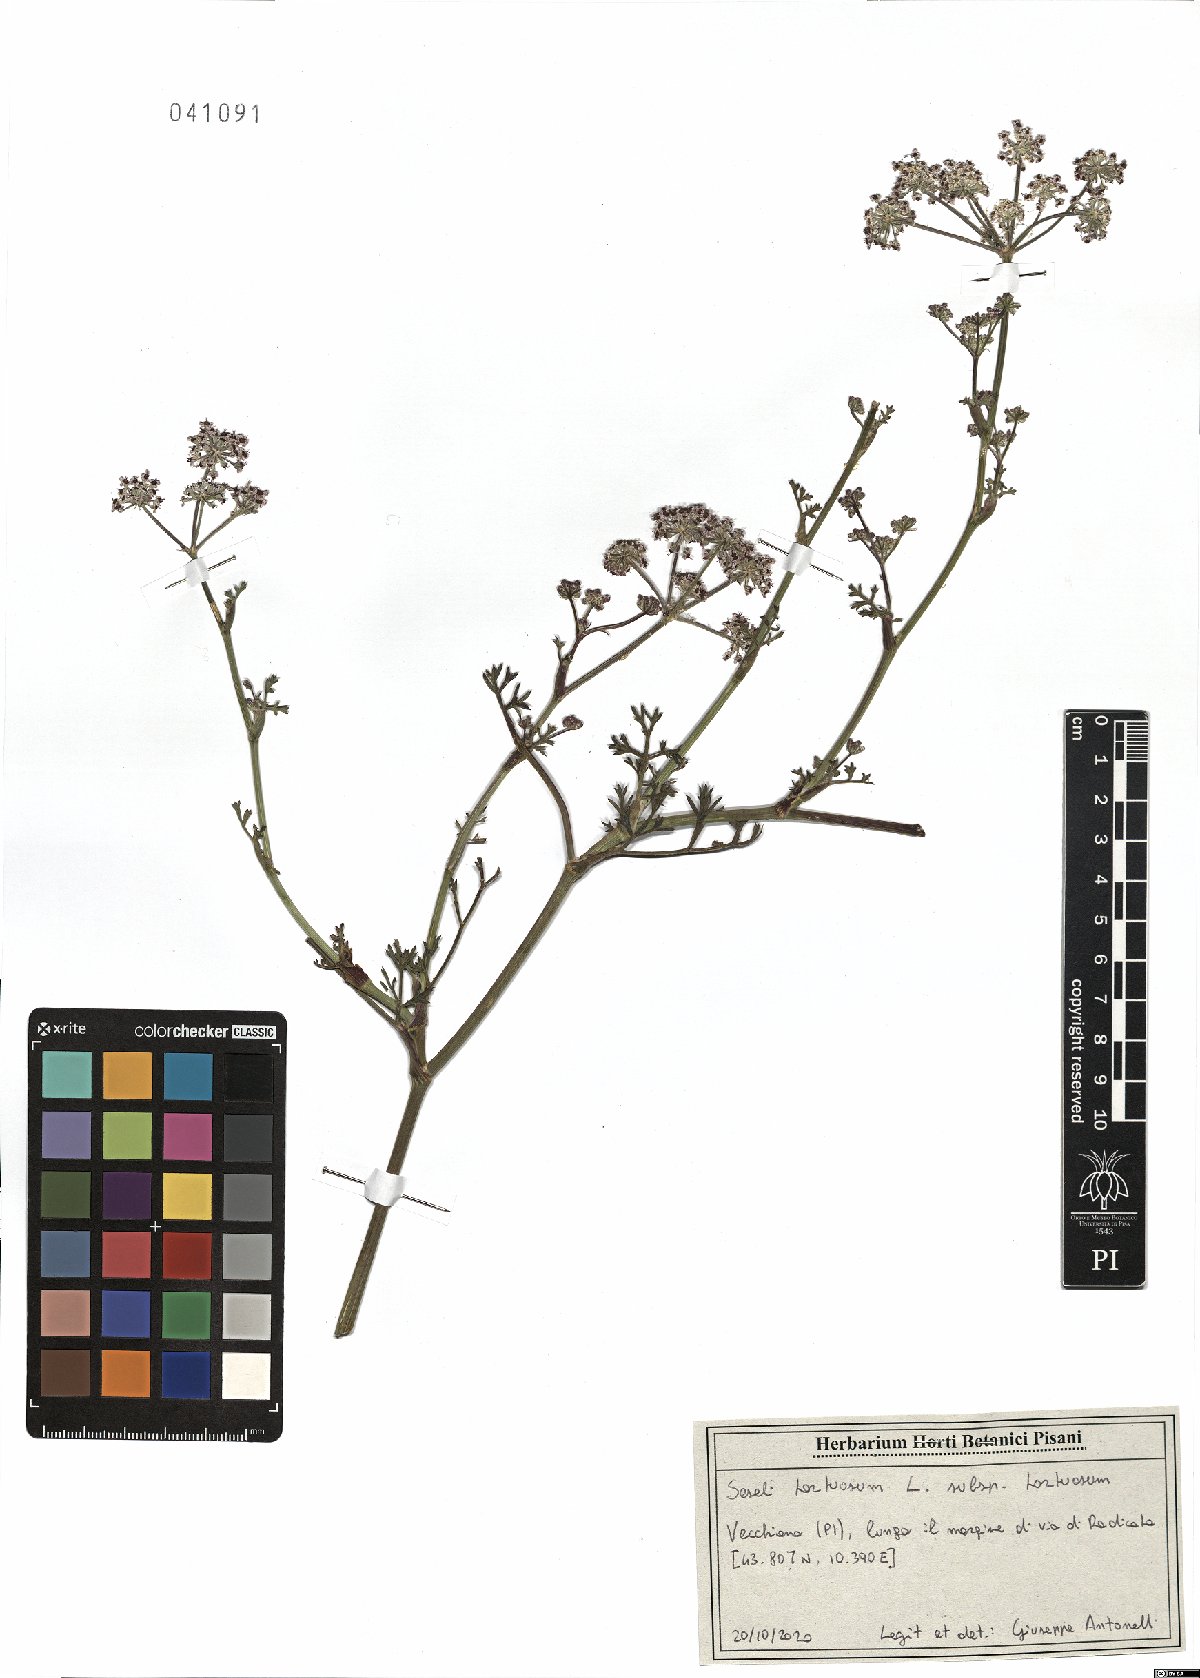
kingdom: Plantae
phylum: Tracheophyta
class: Magnoliopsida
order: Apiales
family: Apiaceae
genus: Seseli
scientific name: Seseli tortuosum
